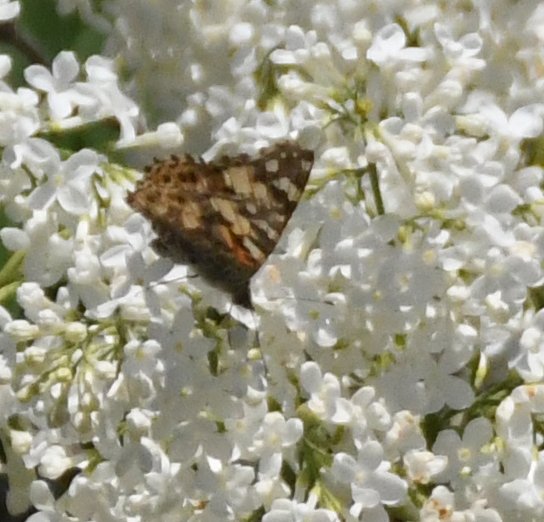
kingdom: Animalia
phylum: Arthropoda
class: Insecta
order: Lepidoptera
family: Nymphalidae
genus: Vanessa
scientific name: Vanessa cardui
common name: Painted Lady
